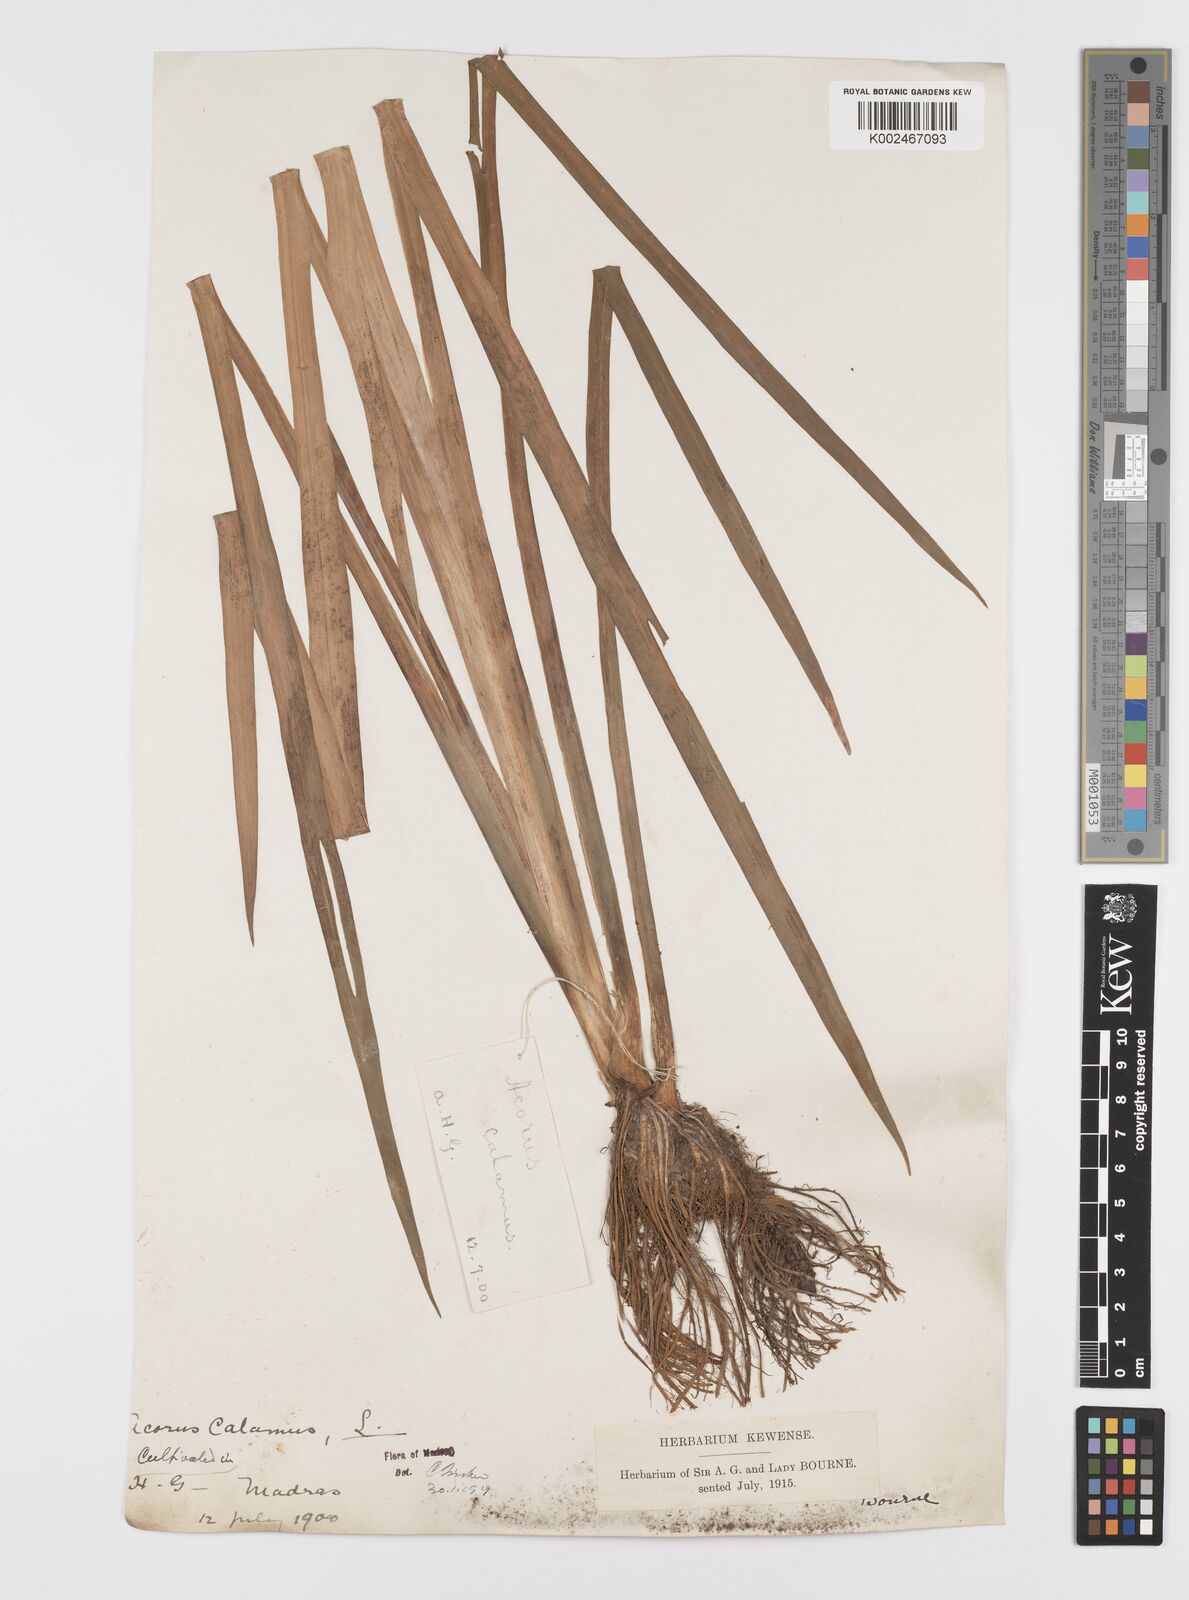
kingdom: Plantae
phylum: Tracheophyta
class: Liliopsida
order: Acorales
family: Acoraceae
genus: Acorus
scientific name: Acorus calamus
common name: Sweet-flag
